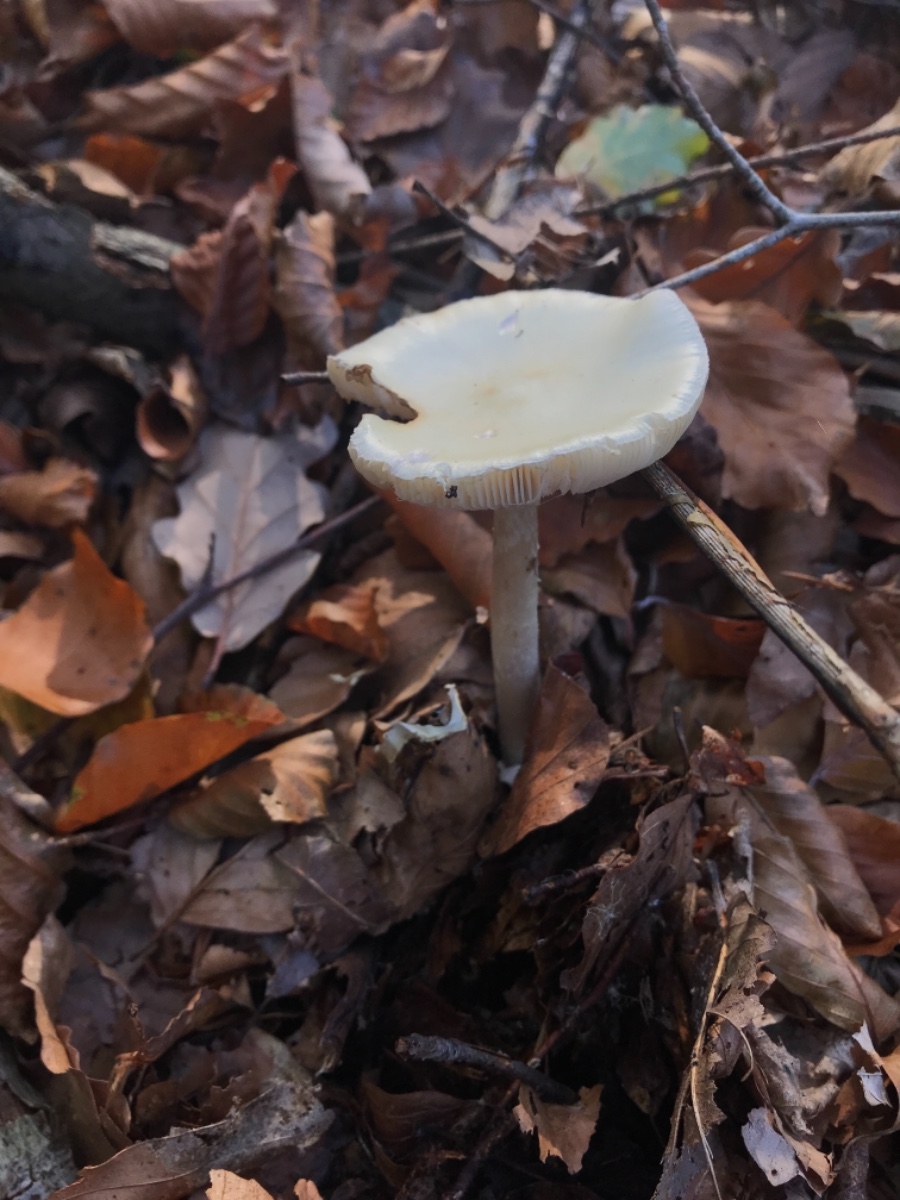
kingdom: Fungi
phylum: Basidiomycota
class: Agaricomycetes
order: Agaricales
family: Amanitaceae
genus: Amanita
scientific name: Amanita citrina
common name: kugleknoldet fluesvamp
